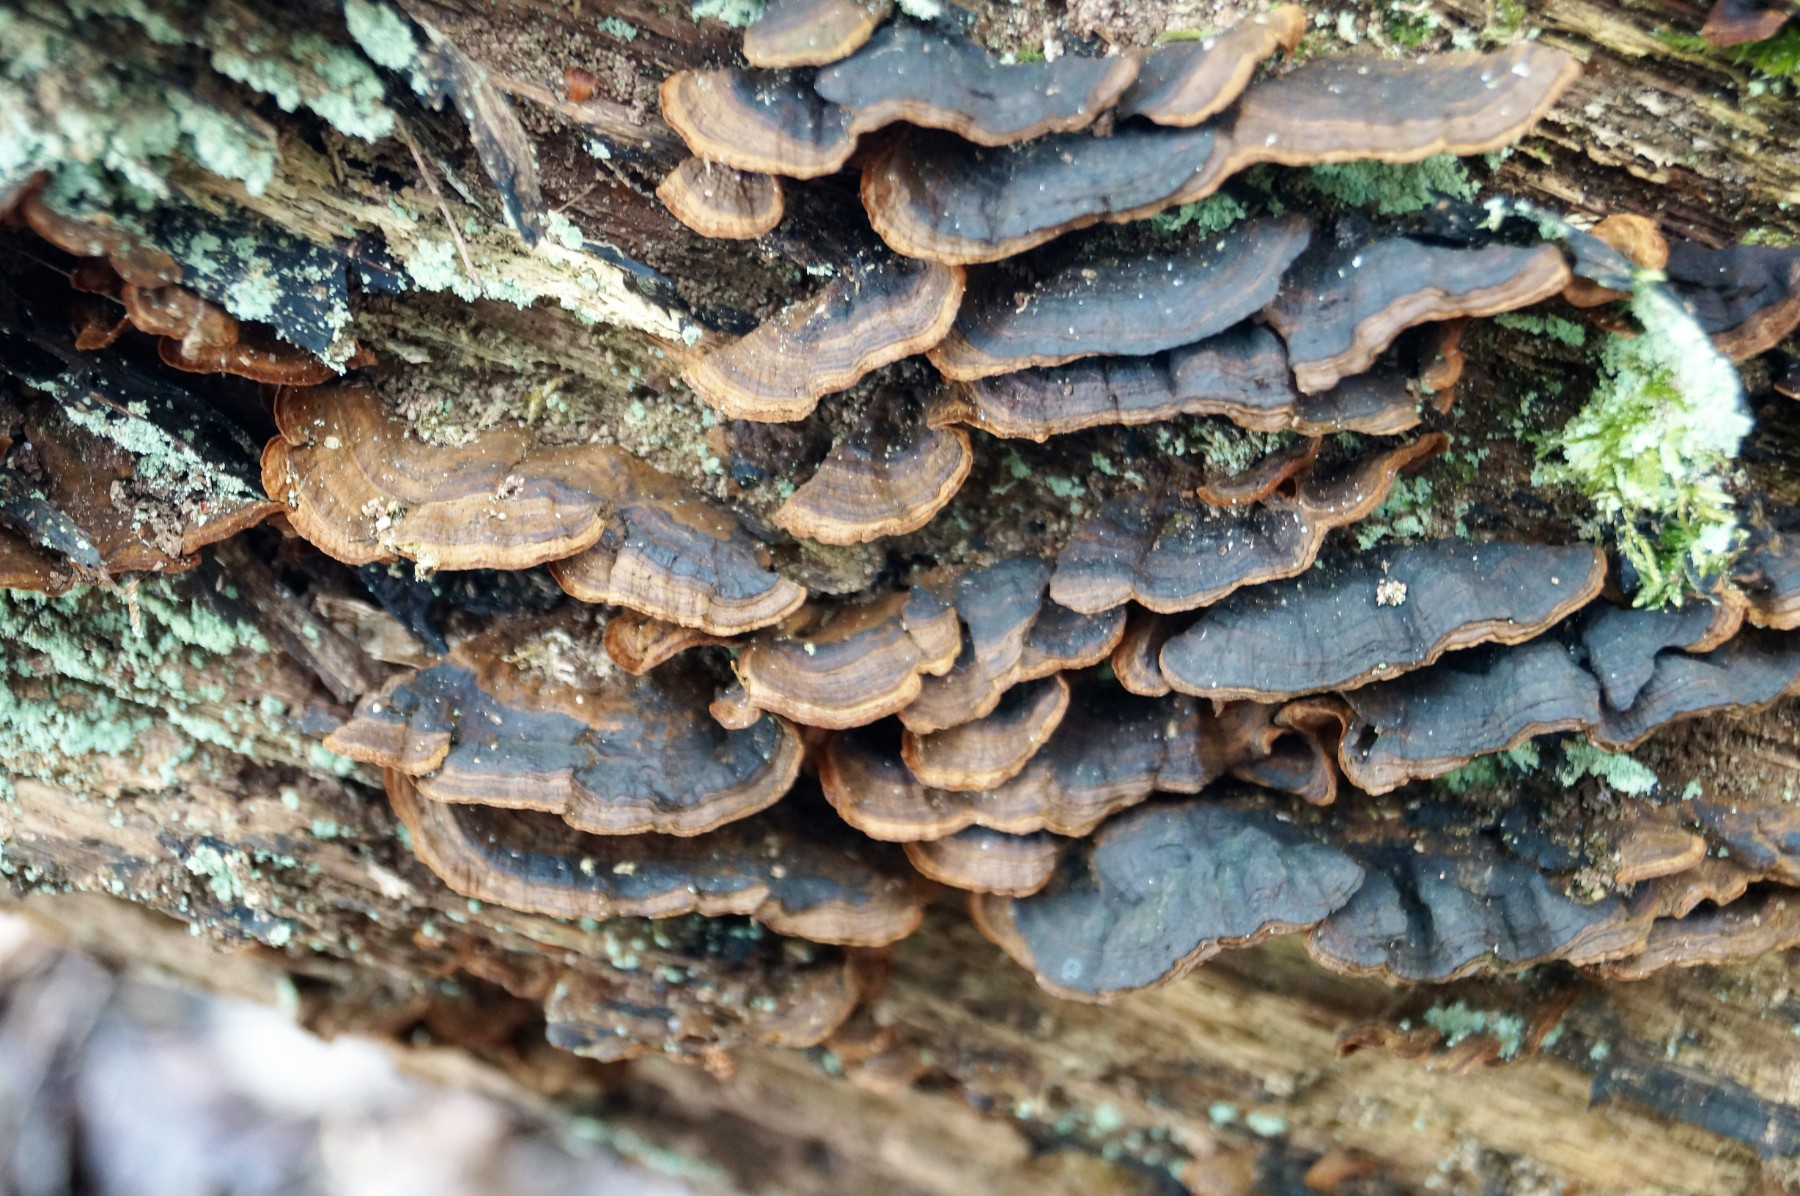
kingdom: Fungi
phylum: Basidiomycota
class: Agaricomycetes
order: Hymenochaetales
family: Hymenochaetaceae
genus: Hymenochaete
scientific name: Hymenochaete rubiginosa
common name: stiv ruslædersvamp
